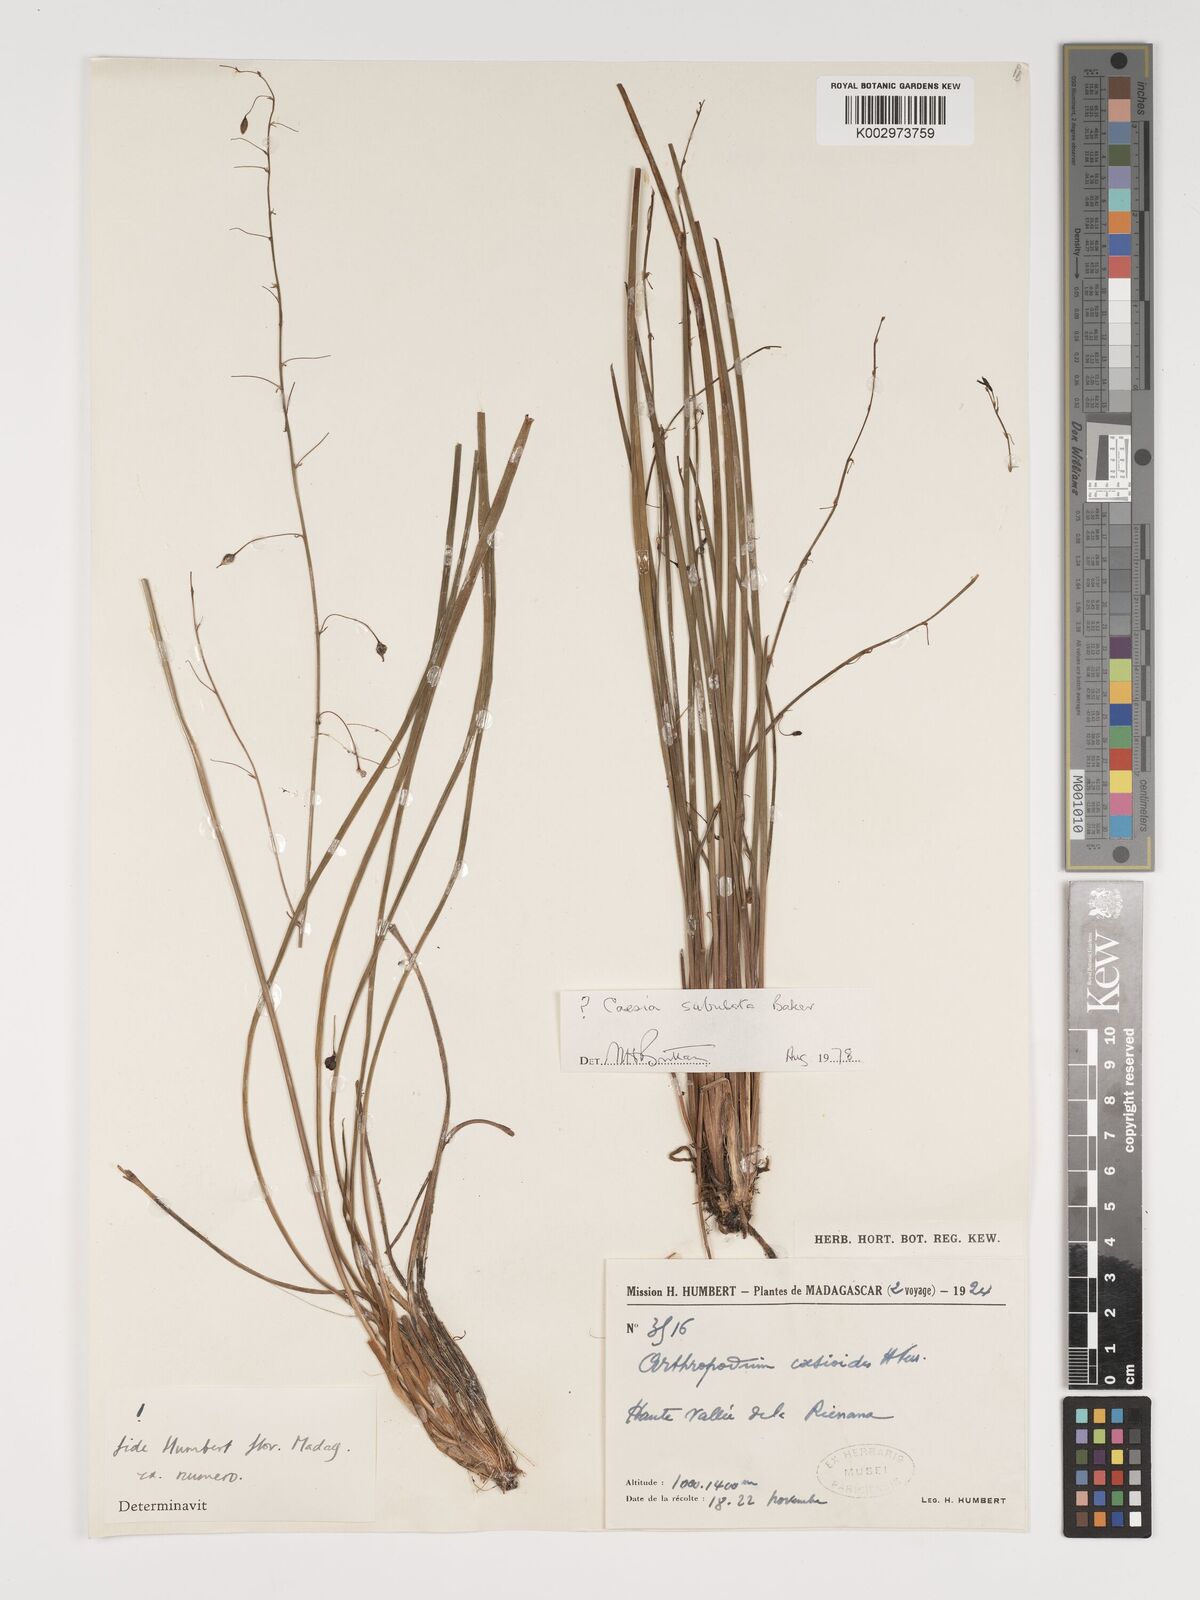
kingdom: Plantae
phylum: Tracheophyta
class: Liliopsida
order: Asparagales
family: Asparagaceae
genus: Arthropodium
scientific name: Arthropodium caesioides
